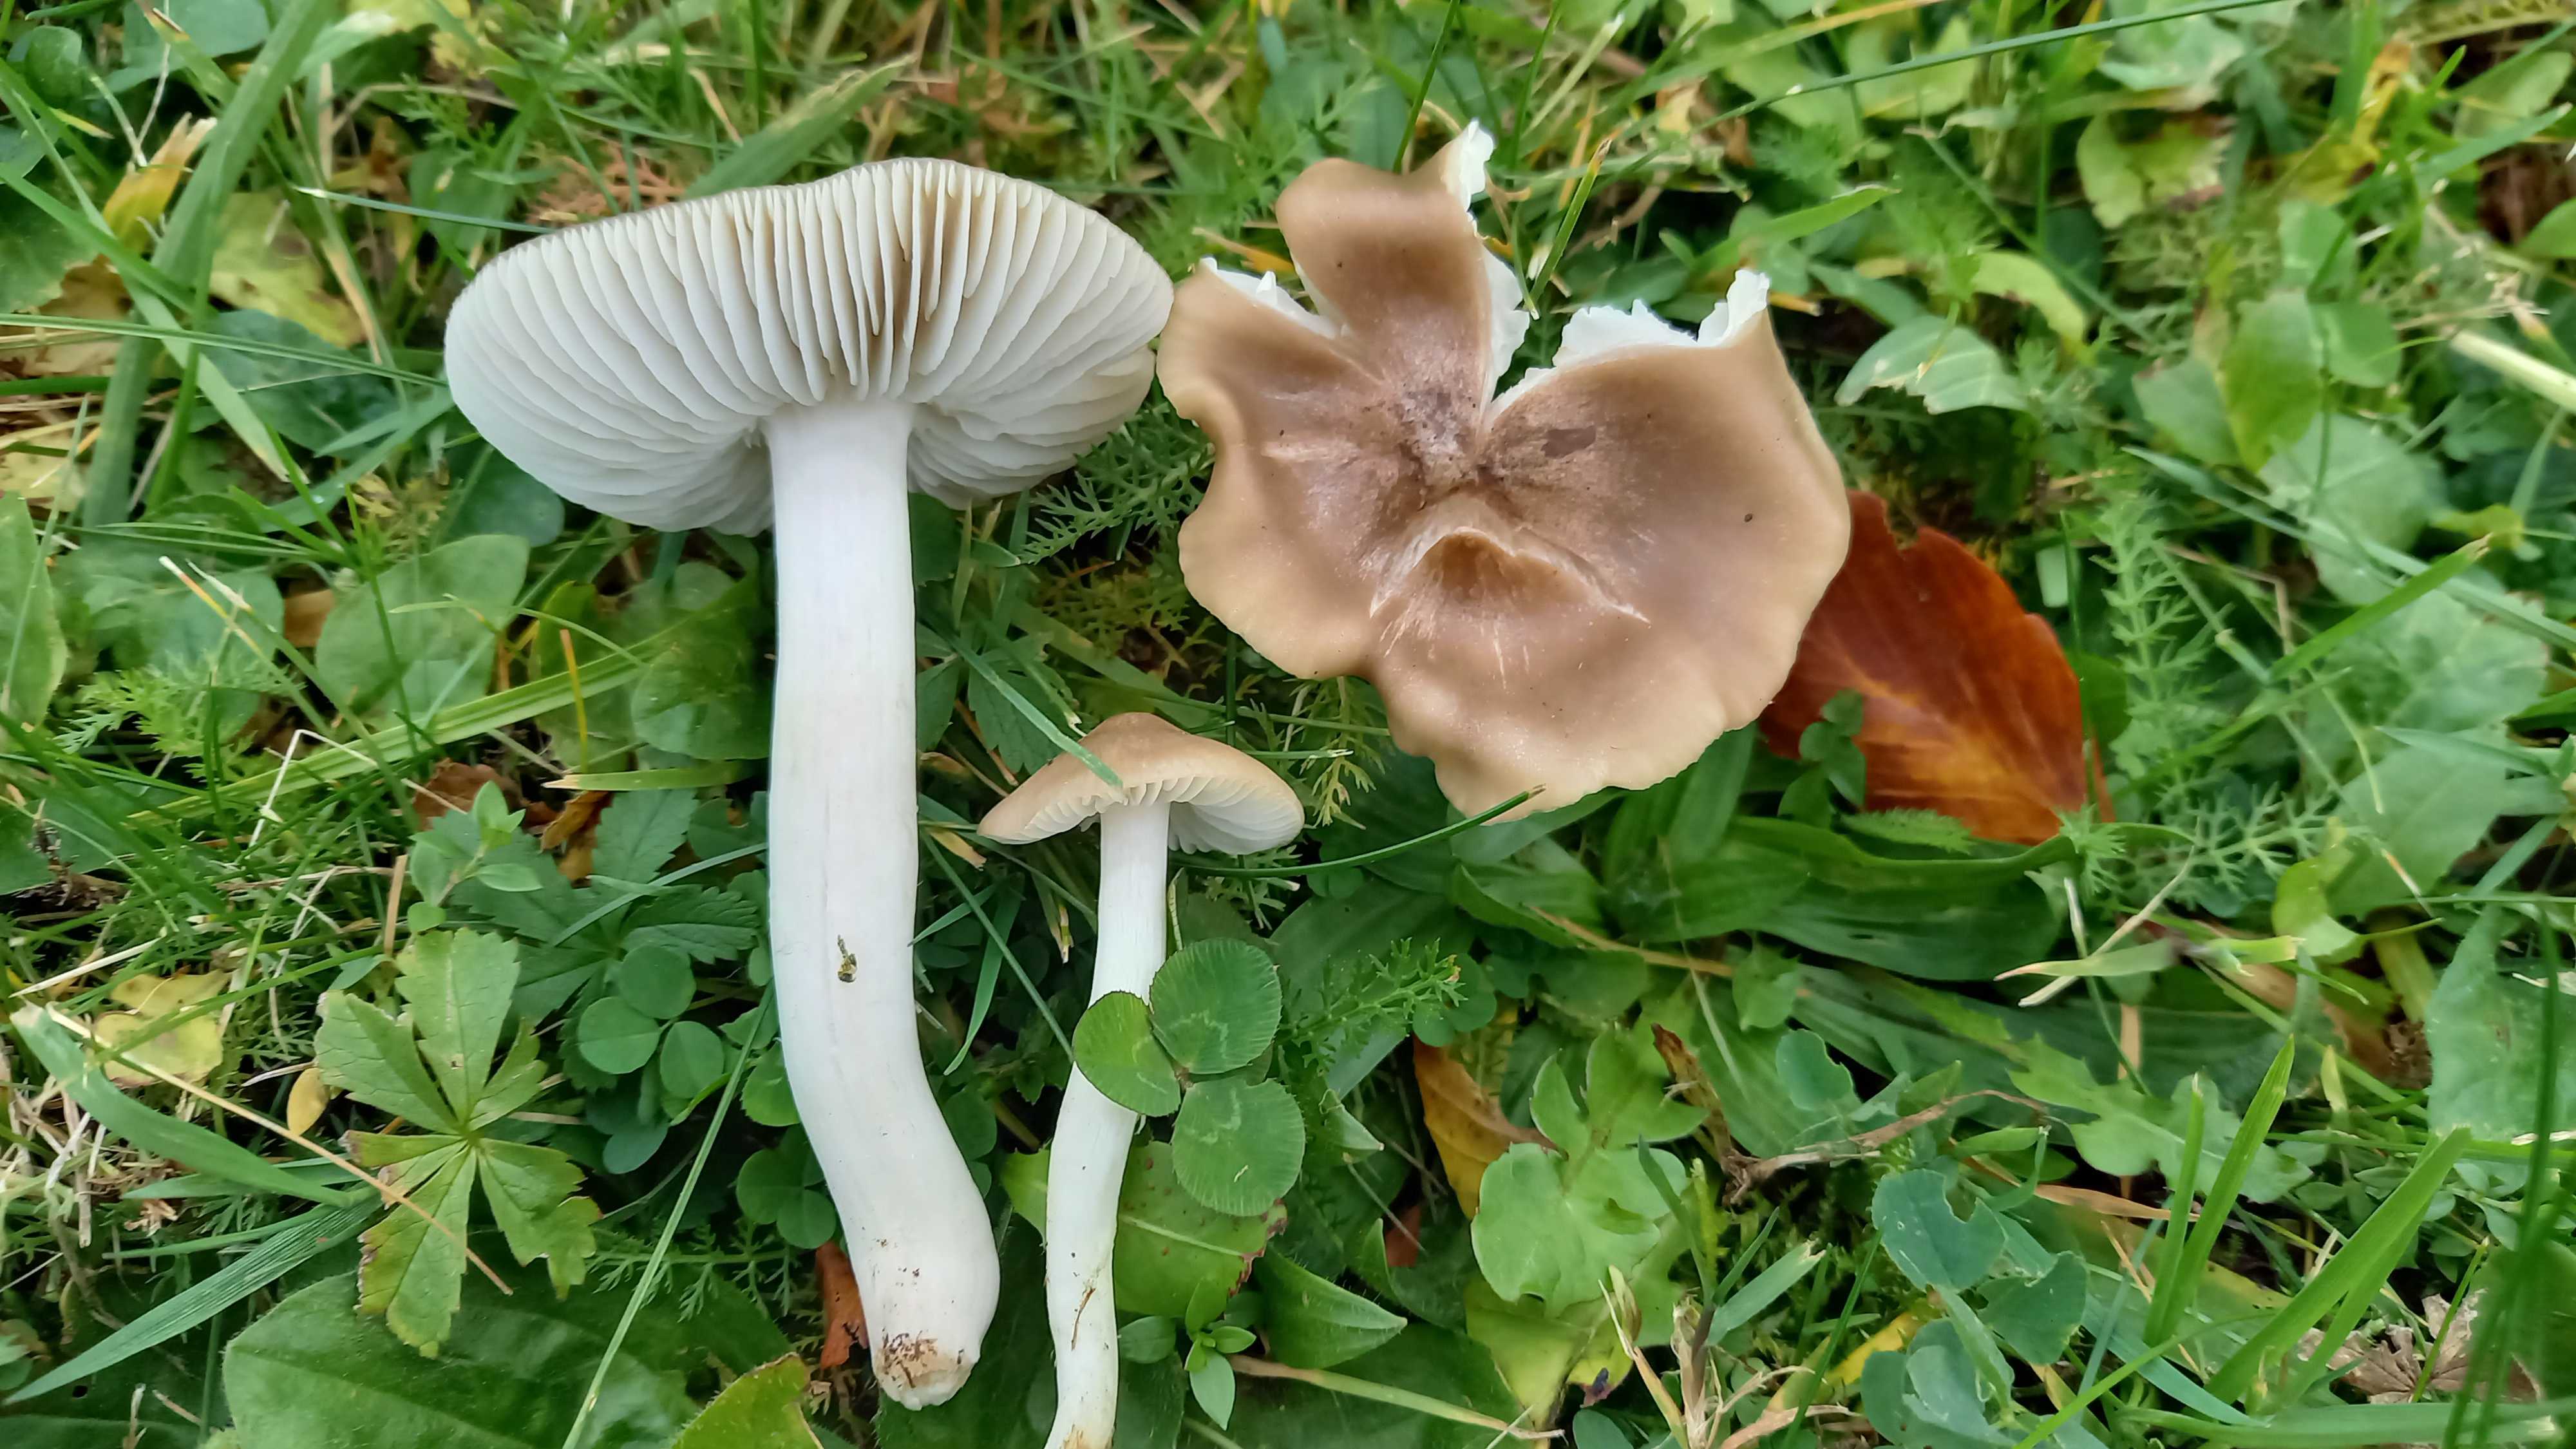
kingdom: Fungi
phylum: Basidiomycota
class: Agaricomycetes
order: Agaricales
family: Hygrophoraceae
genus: Cuphophyllus
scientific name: Cuphophyllus fornicatus
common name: gråbrun vokshat
